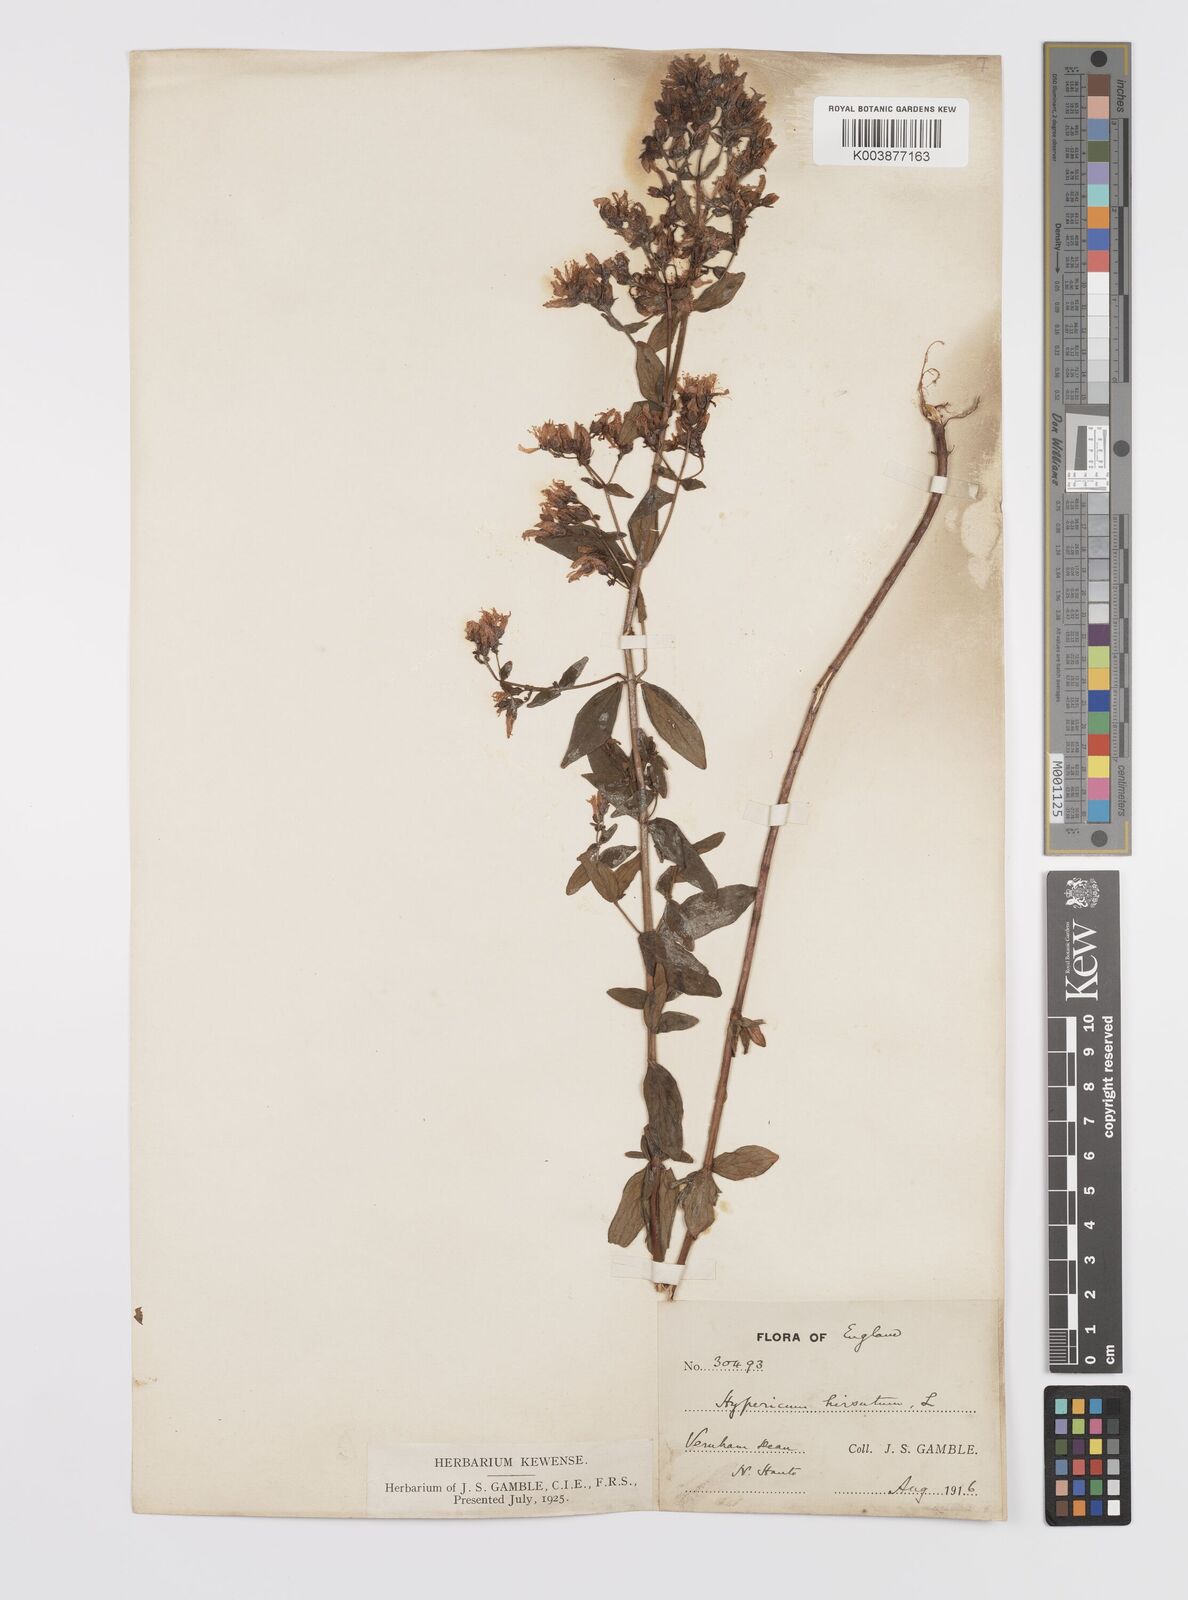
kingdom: Plantae
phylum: Tracheophyta
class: Magnoliopsida
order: Malpighiales
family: Hypericaceae
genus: Hypericum
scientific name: Hypericum hirsutum
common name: Hairy st. john's-wort
